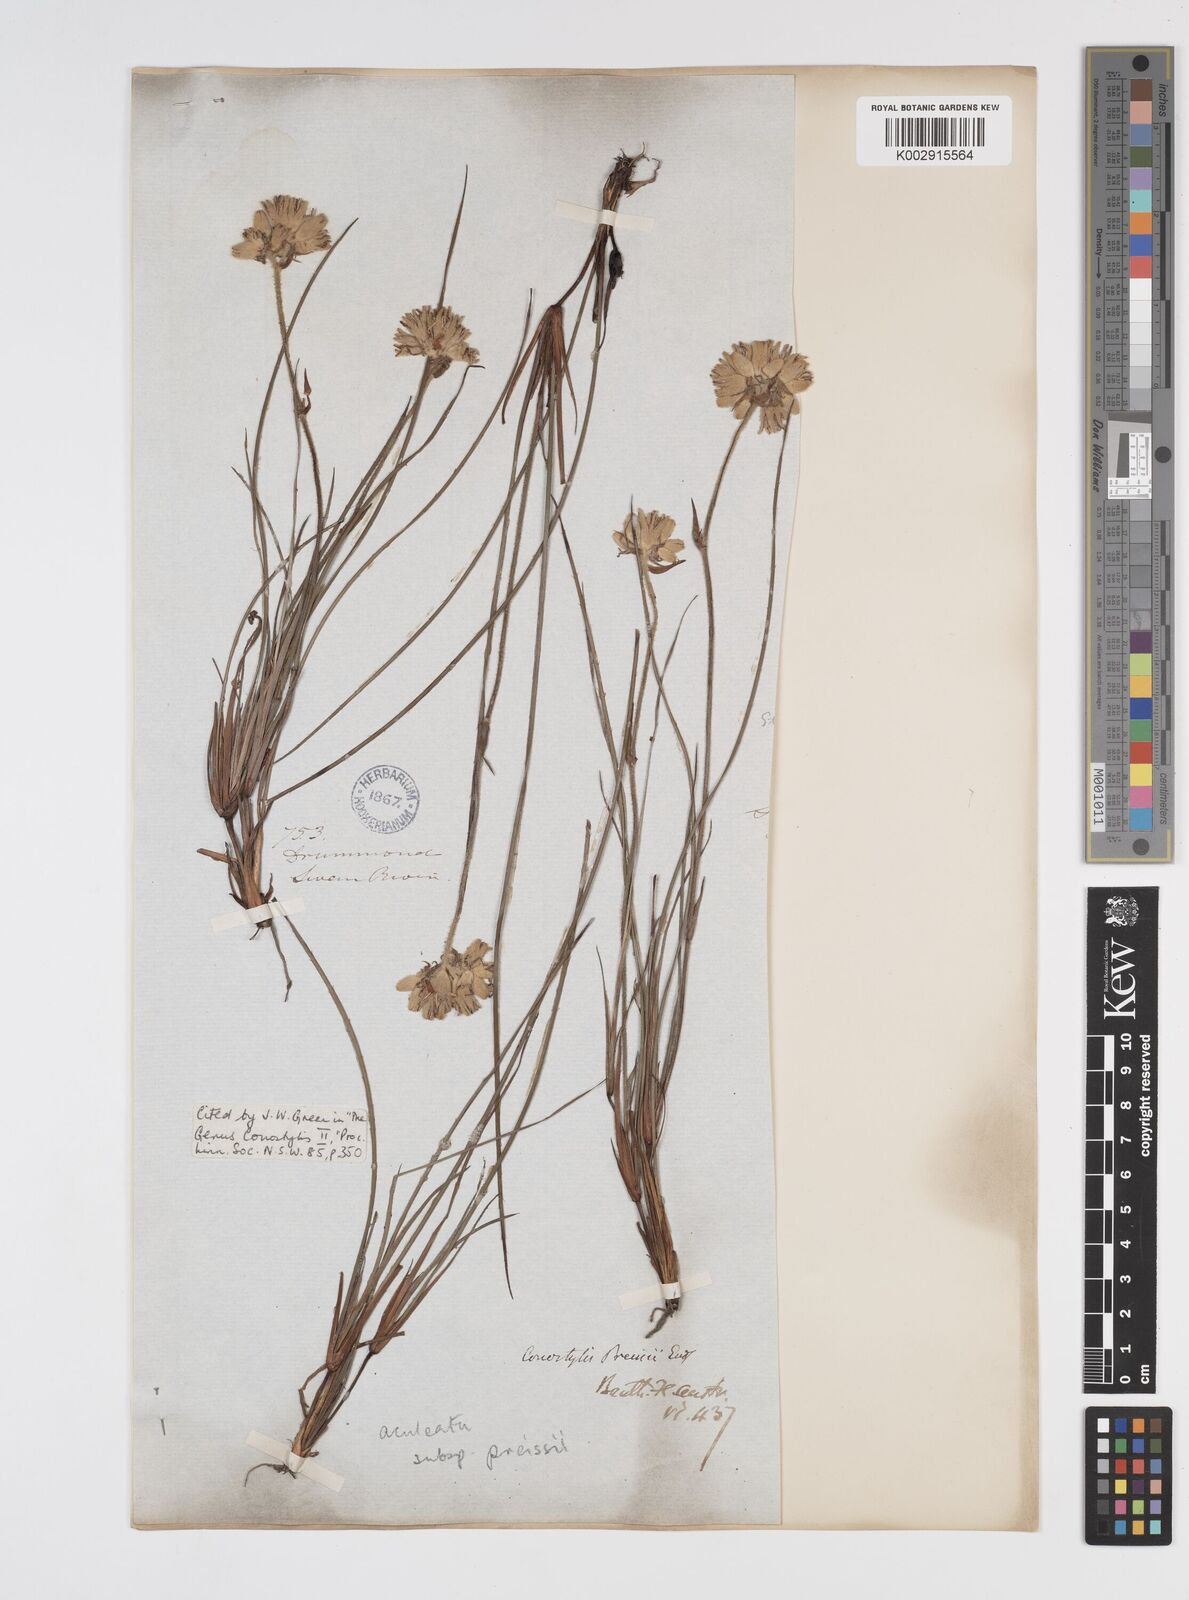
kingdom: Plantae
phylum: Tracheophyta
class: Liliopsida
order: Commelinales
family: Haemodoraceae
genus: Conostylis
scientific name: Conostylis aculeata
